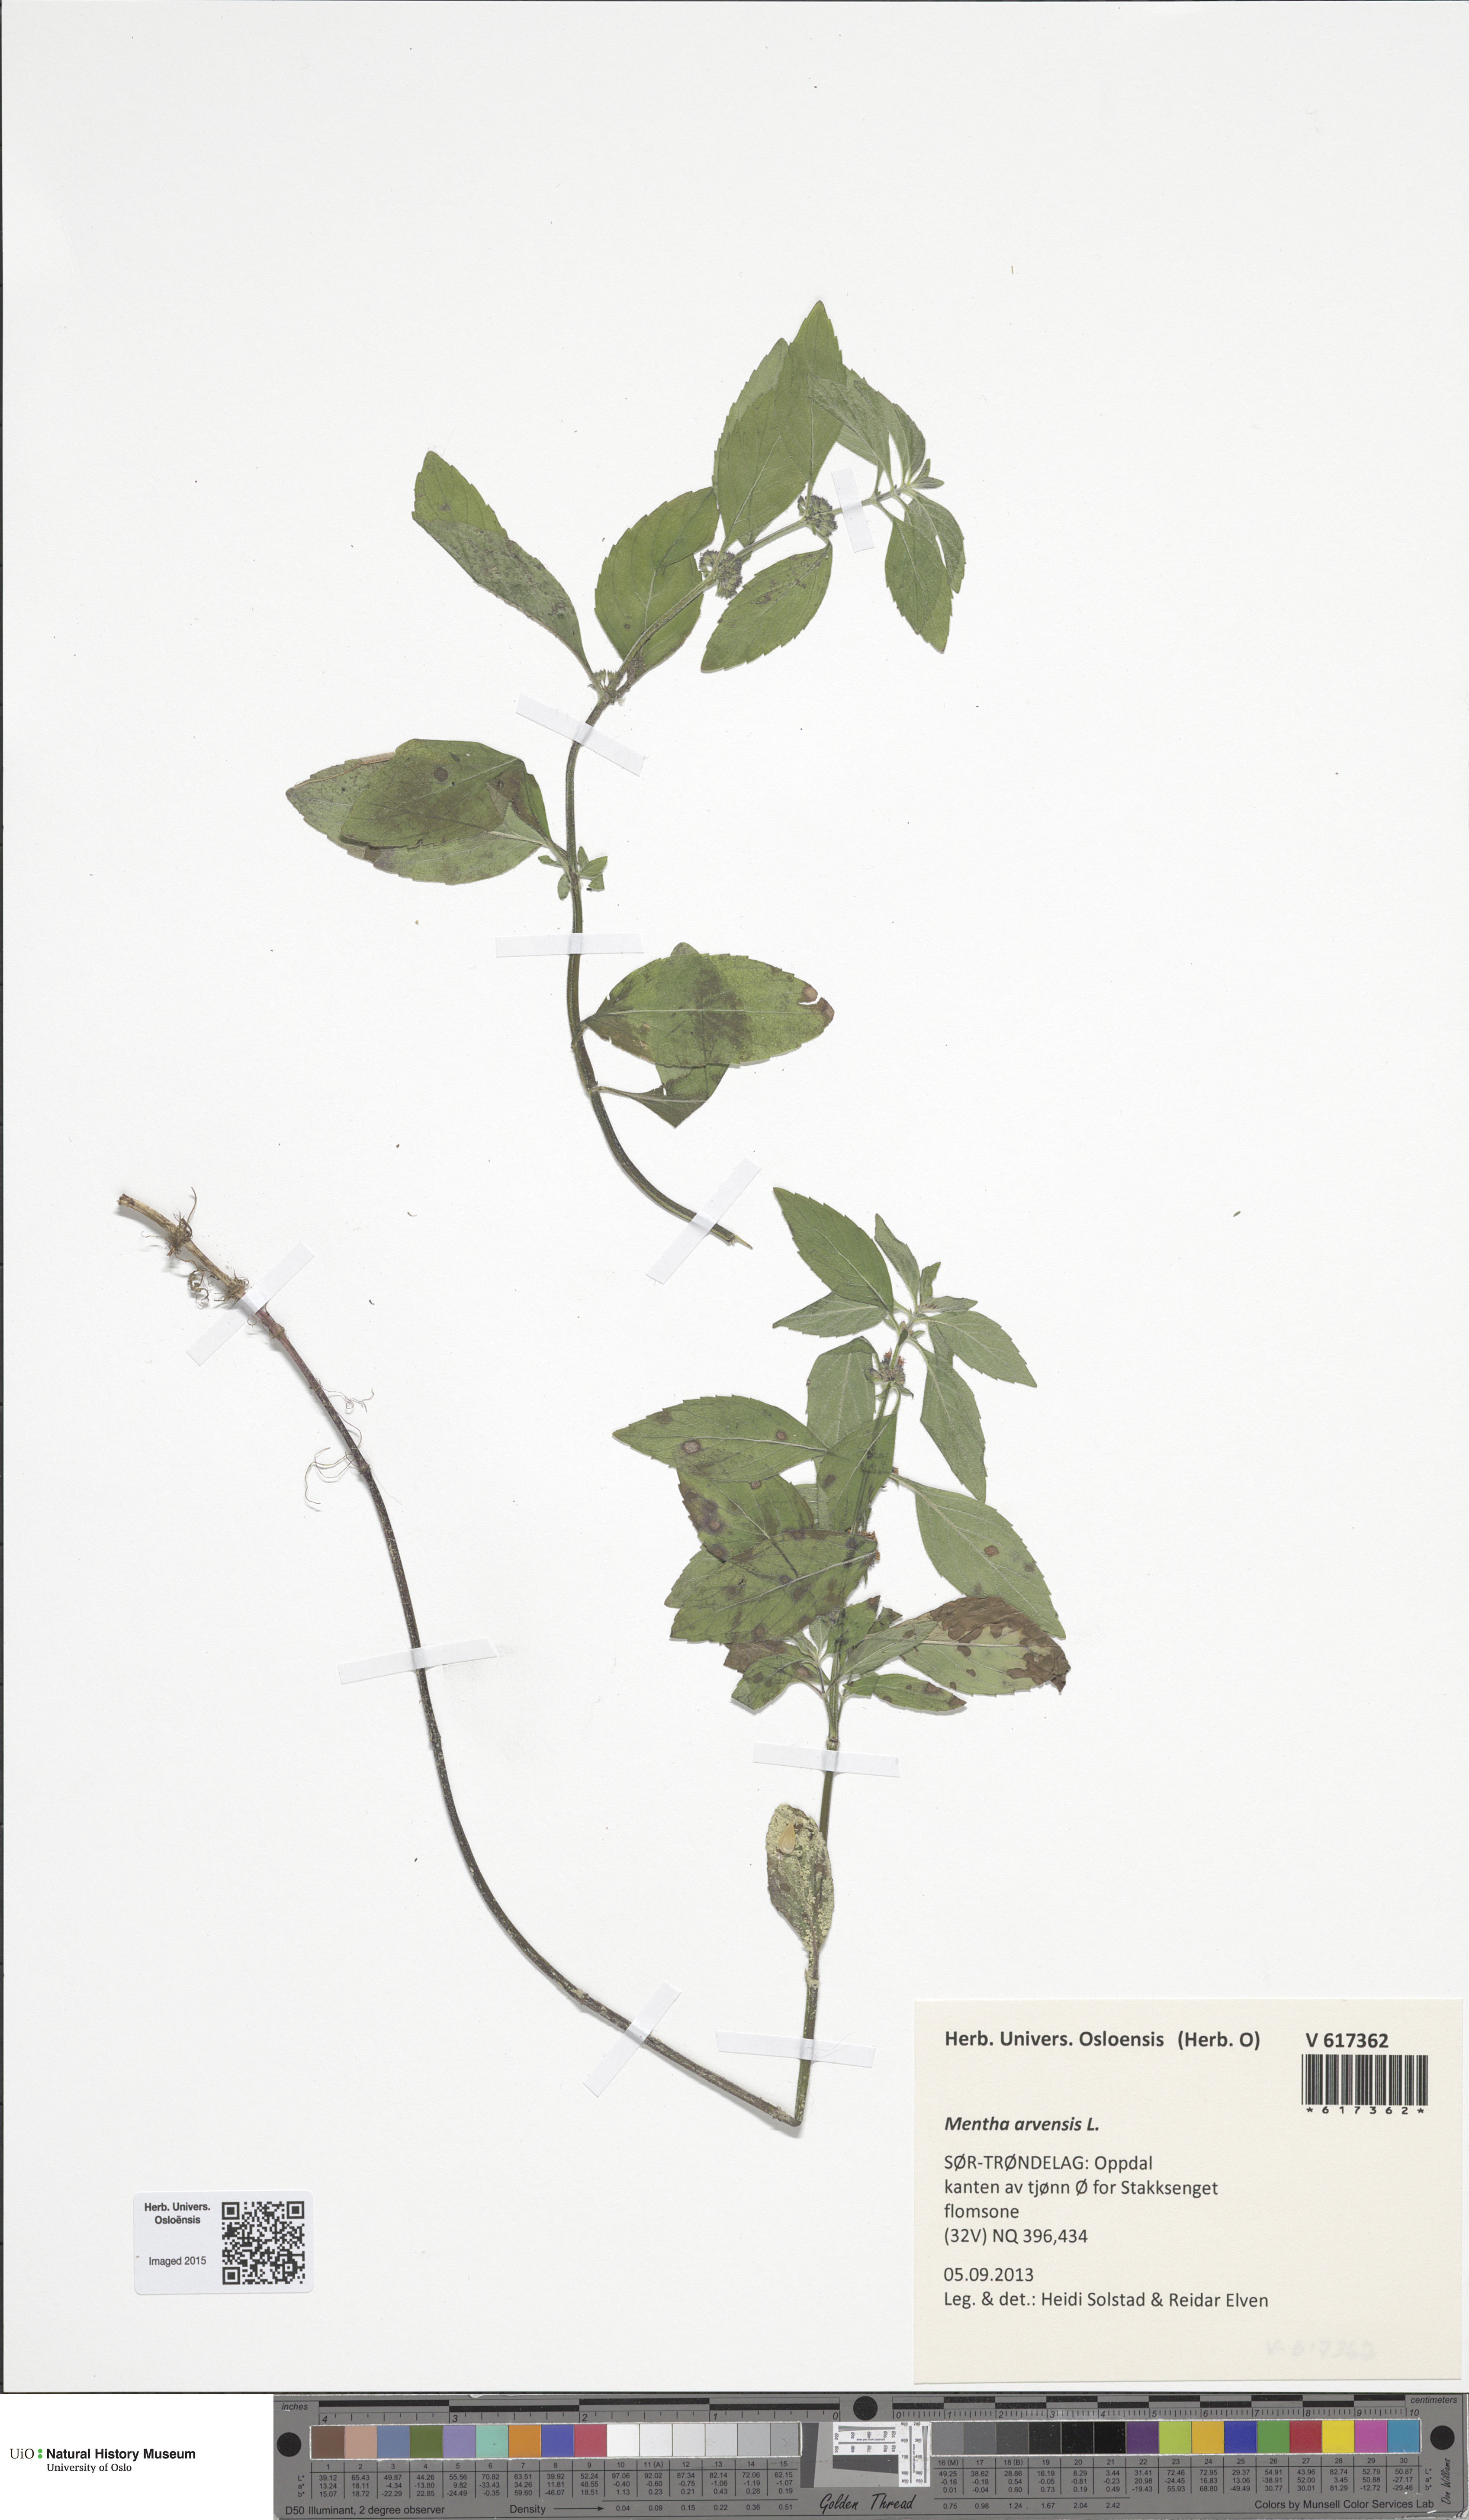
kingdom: Plantae
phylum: Tracheophyta
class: Magnoliopsida
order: Lamiales
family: Lamiaceae
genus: Mentha
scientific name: Mentha arvensis
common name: Corn mint
